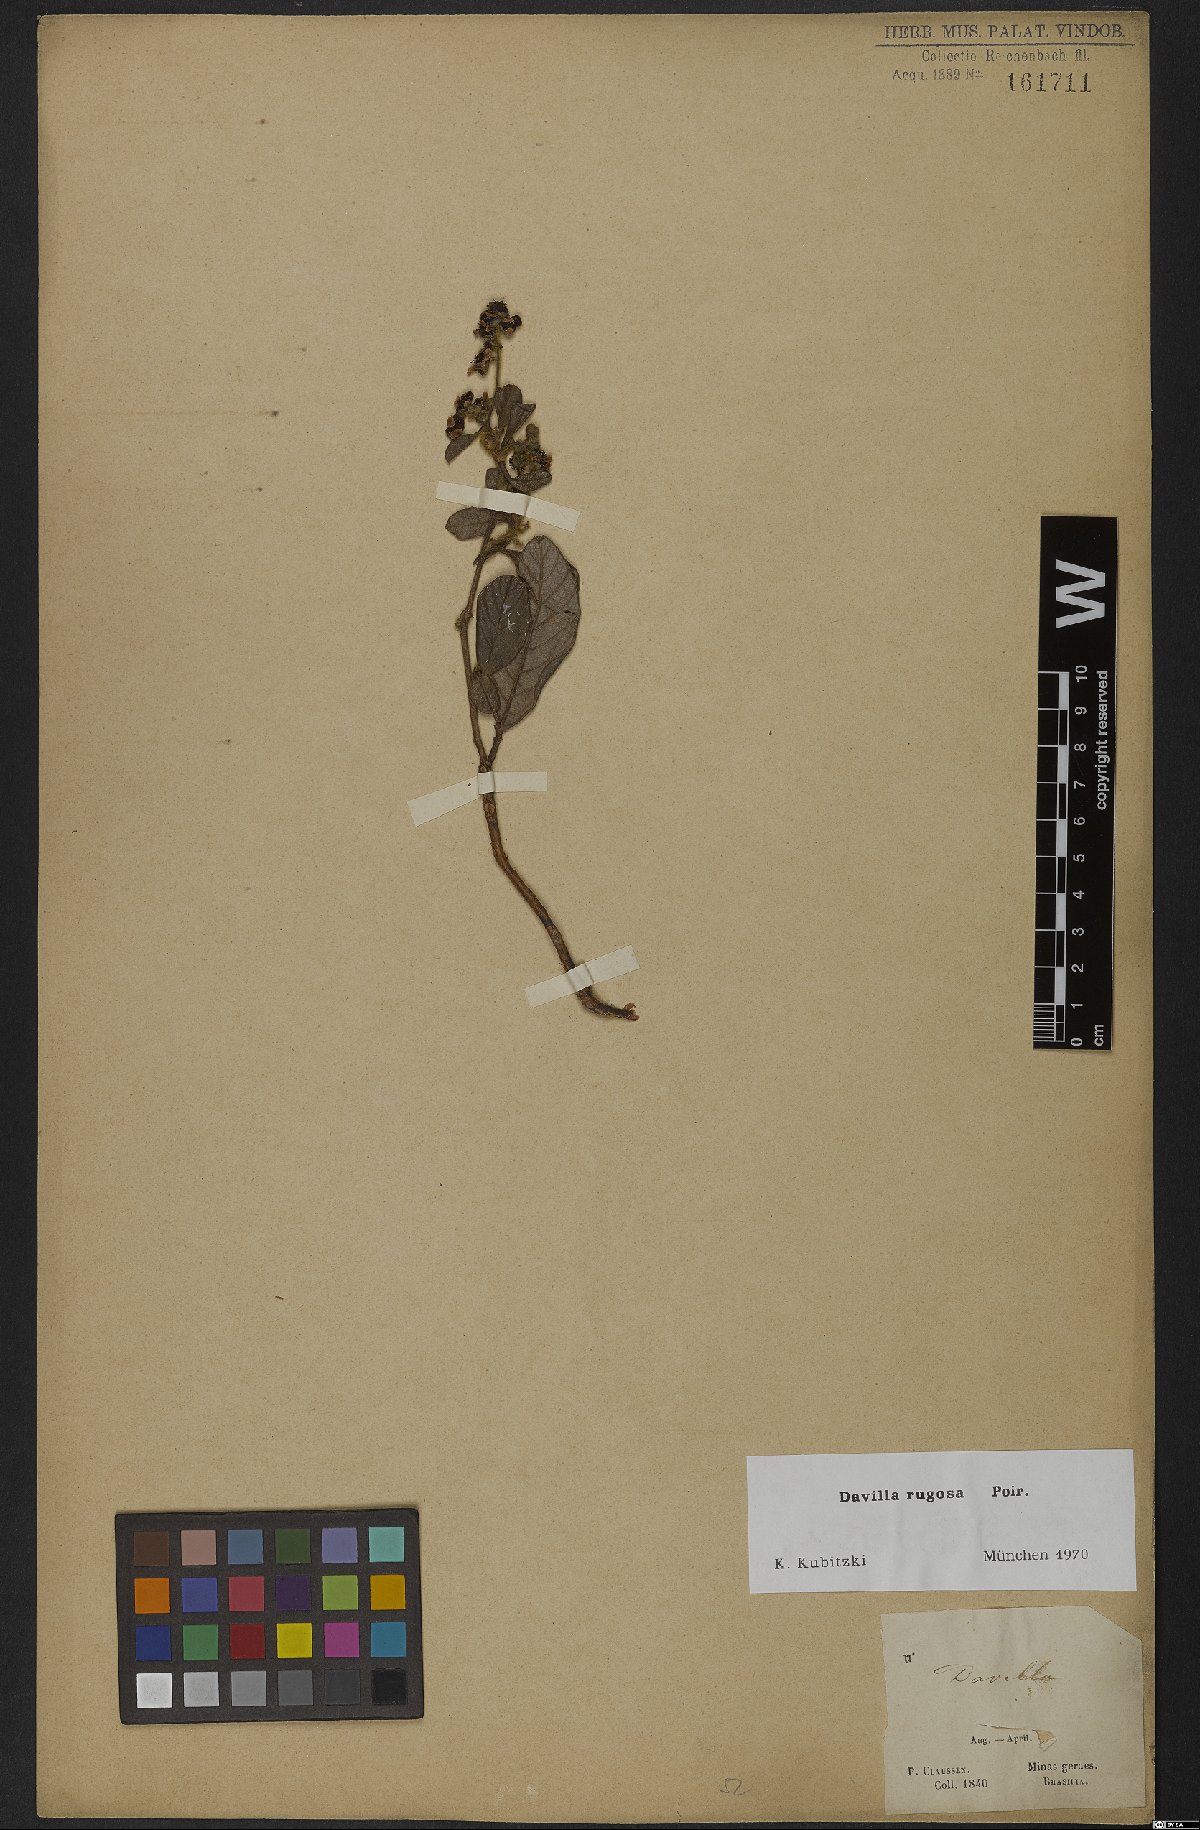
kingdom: Plantae
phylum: Tracheophyta
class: Magnoliopsida
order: Dilleniales
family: Dilleniaceae
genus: Davilla
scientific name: Davilla rugosa
